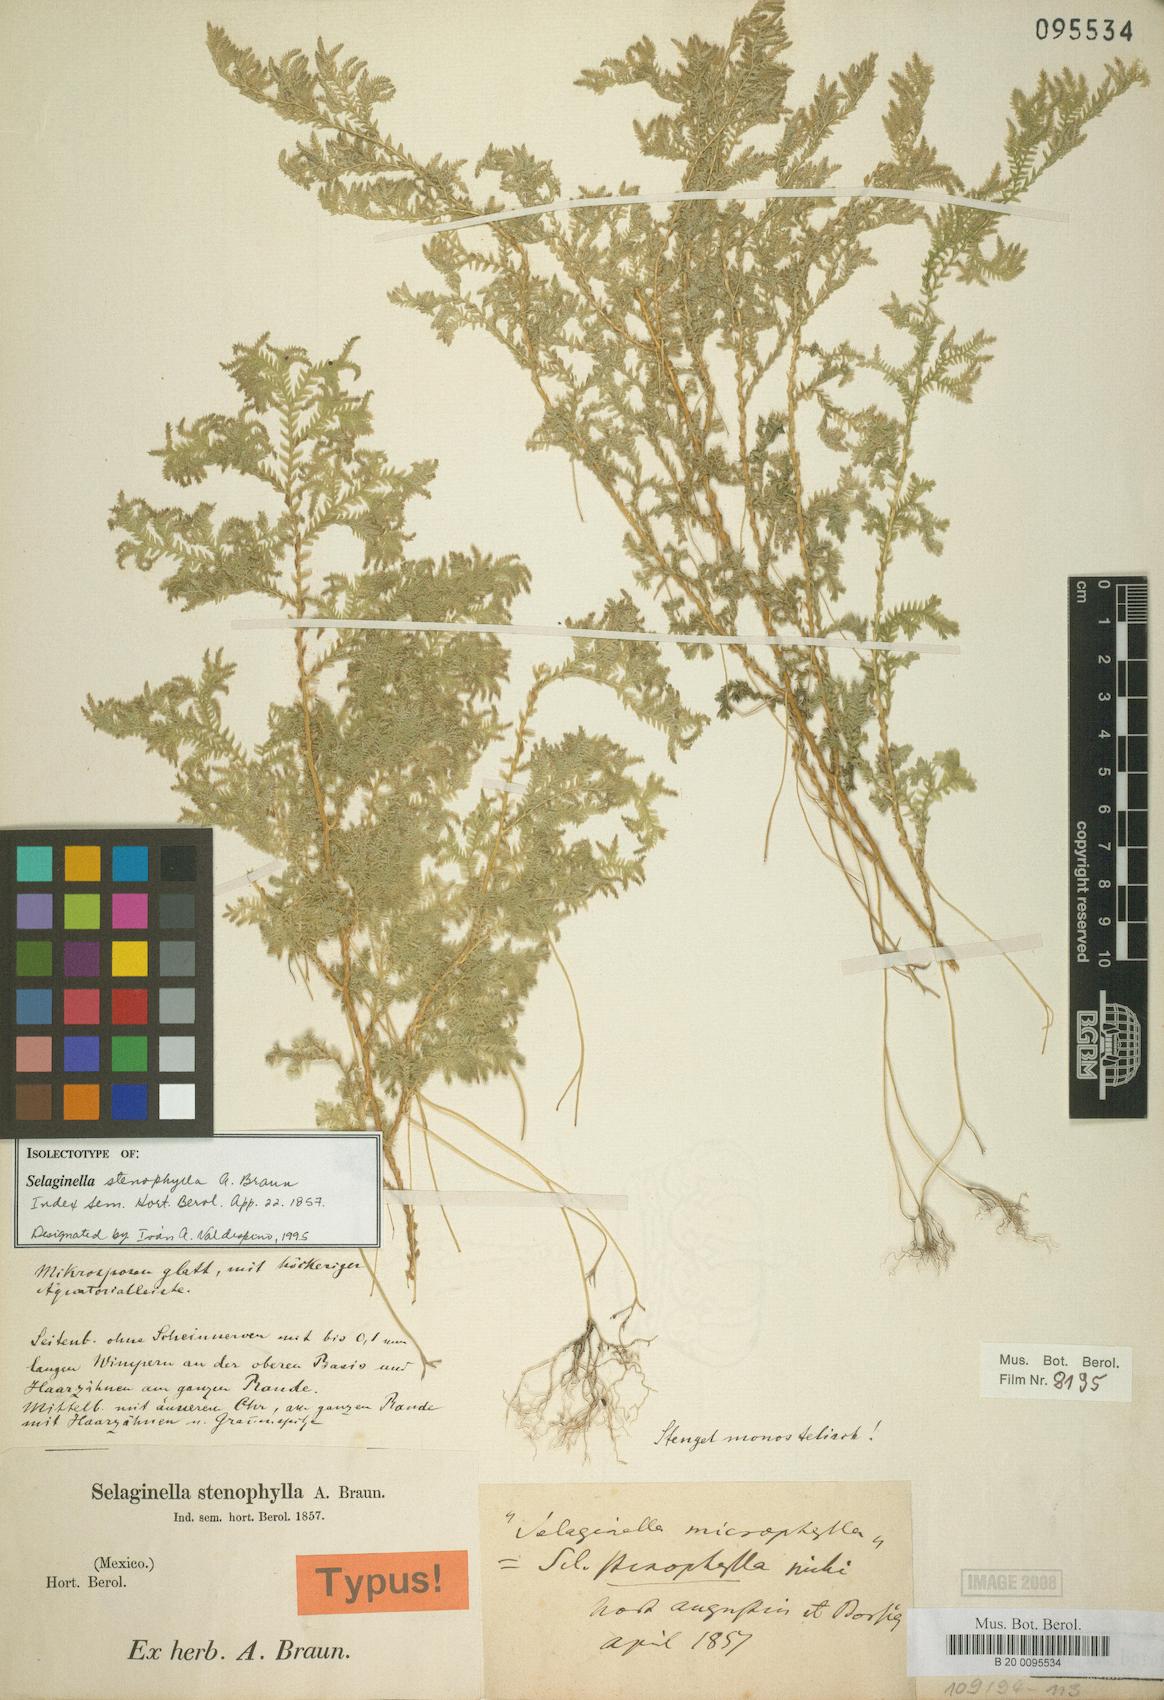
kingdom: Plantae
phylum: Tracheophyta
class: Lycopodiopsida
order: Selaginellales
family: Selaginellaceae
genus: Selaginella
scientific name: Selaginella stenophylla
